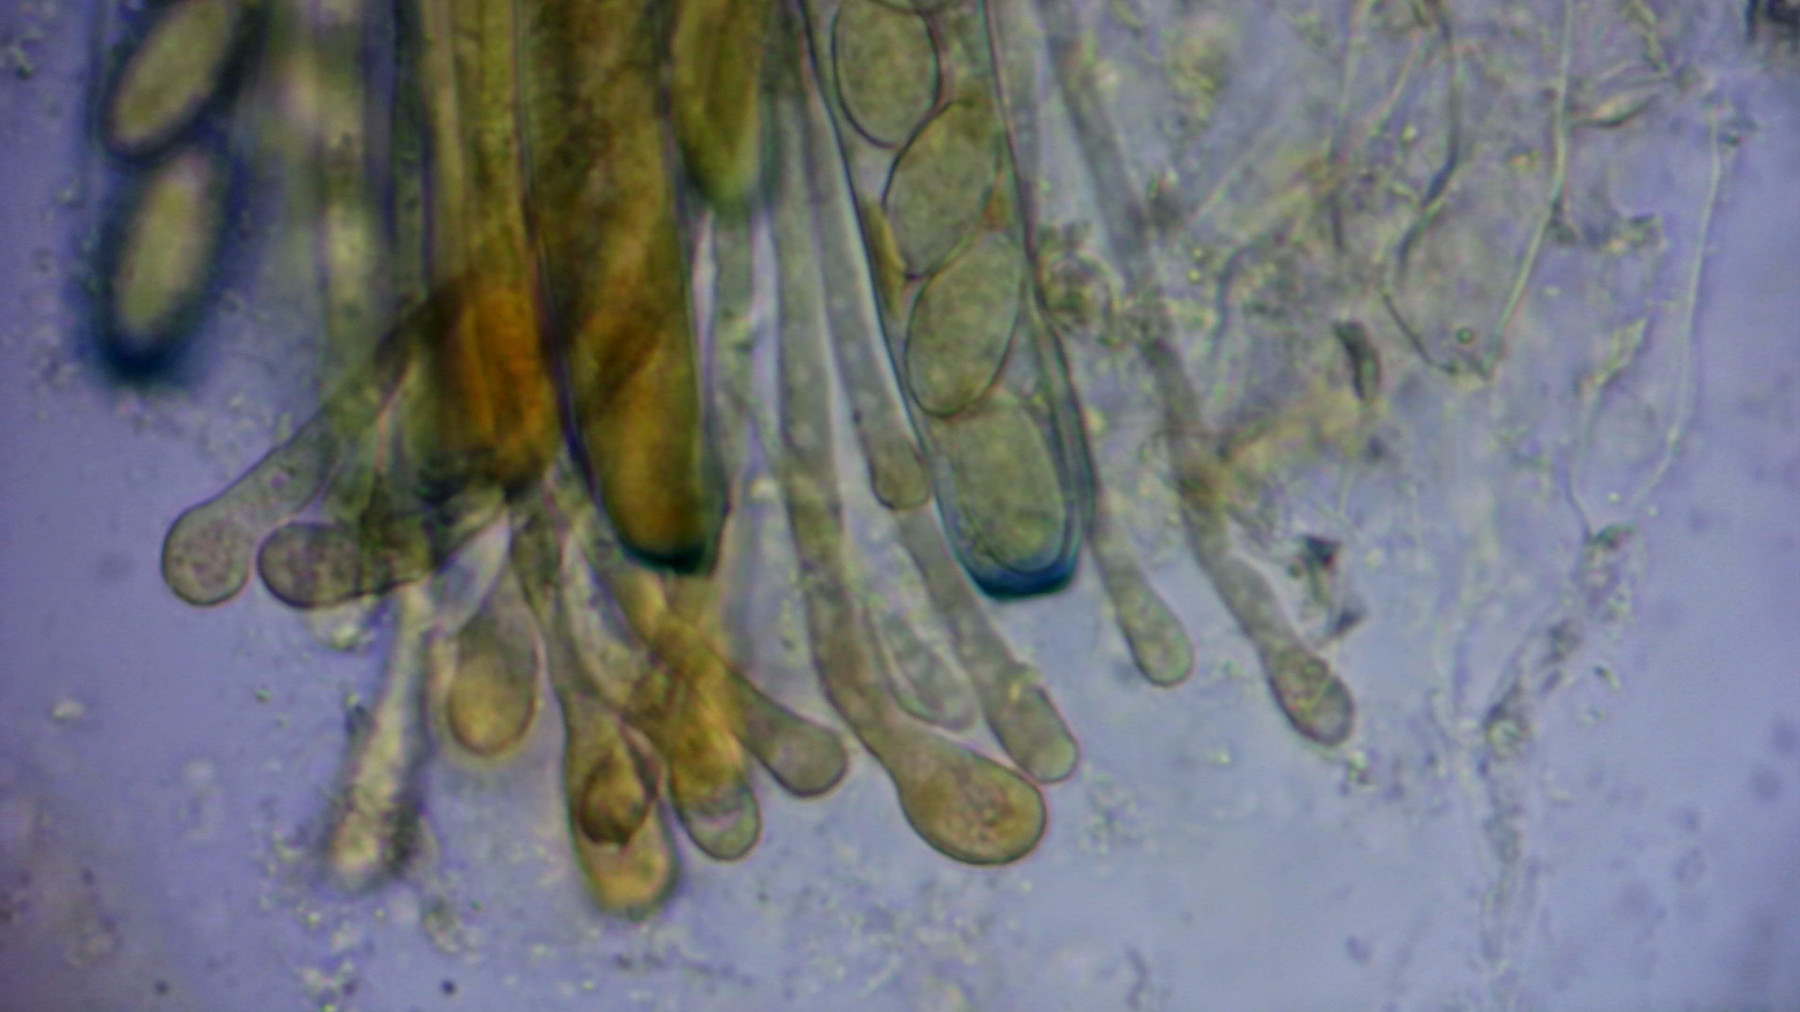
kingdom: Fungi
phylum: Ascomycota
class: Pezizomycetes
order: Pezizales
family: Pezizaceae
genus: Peziza
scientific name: Peziza
